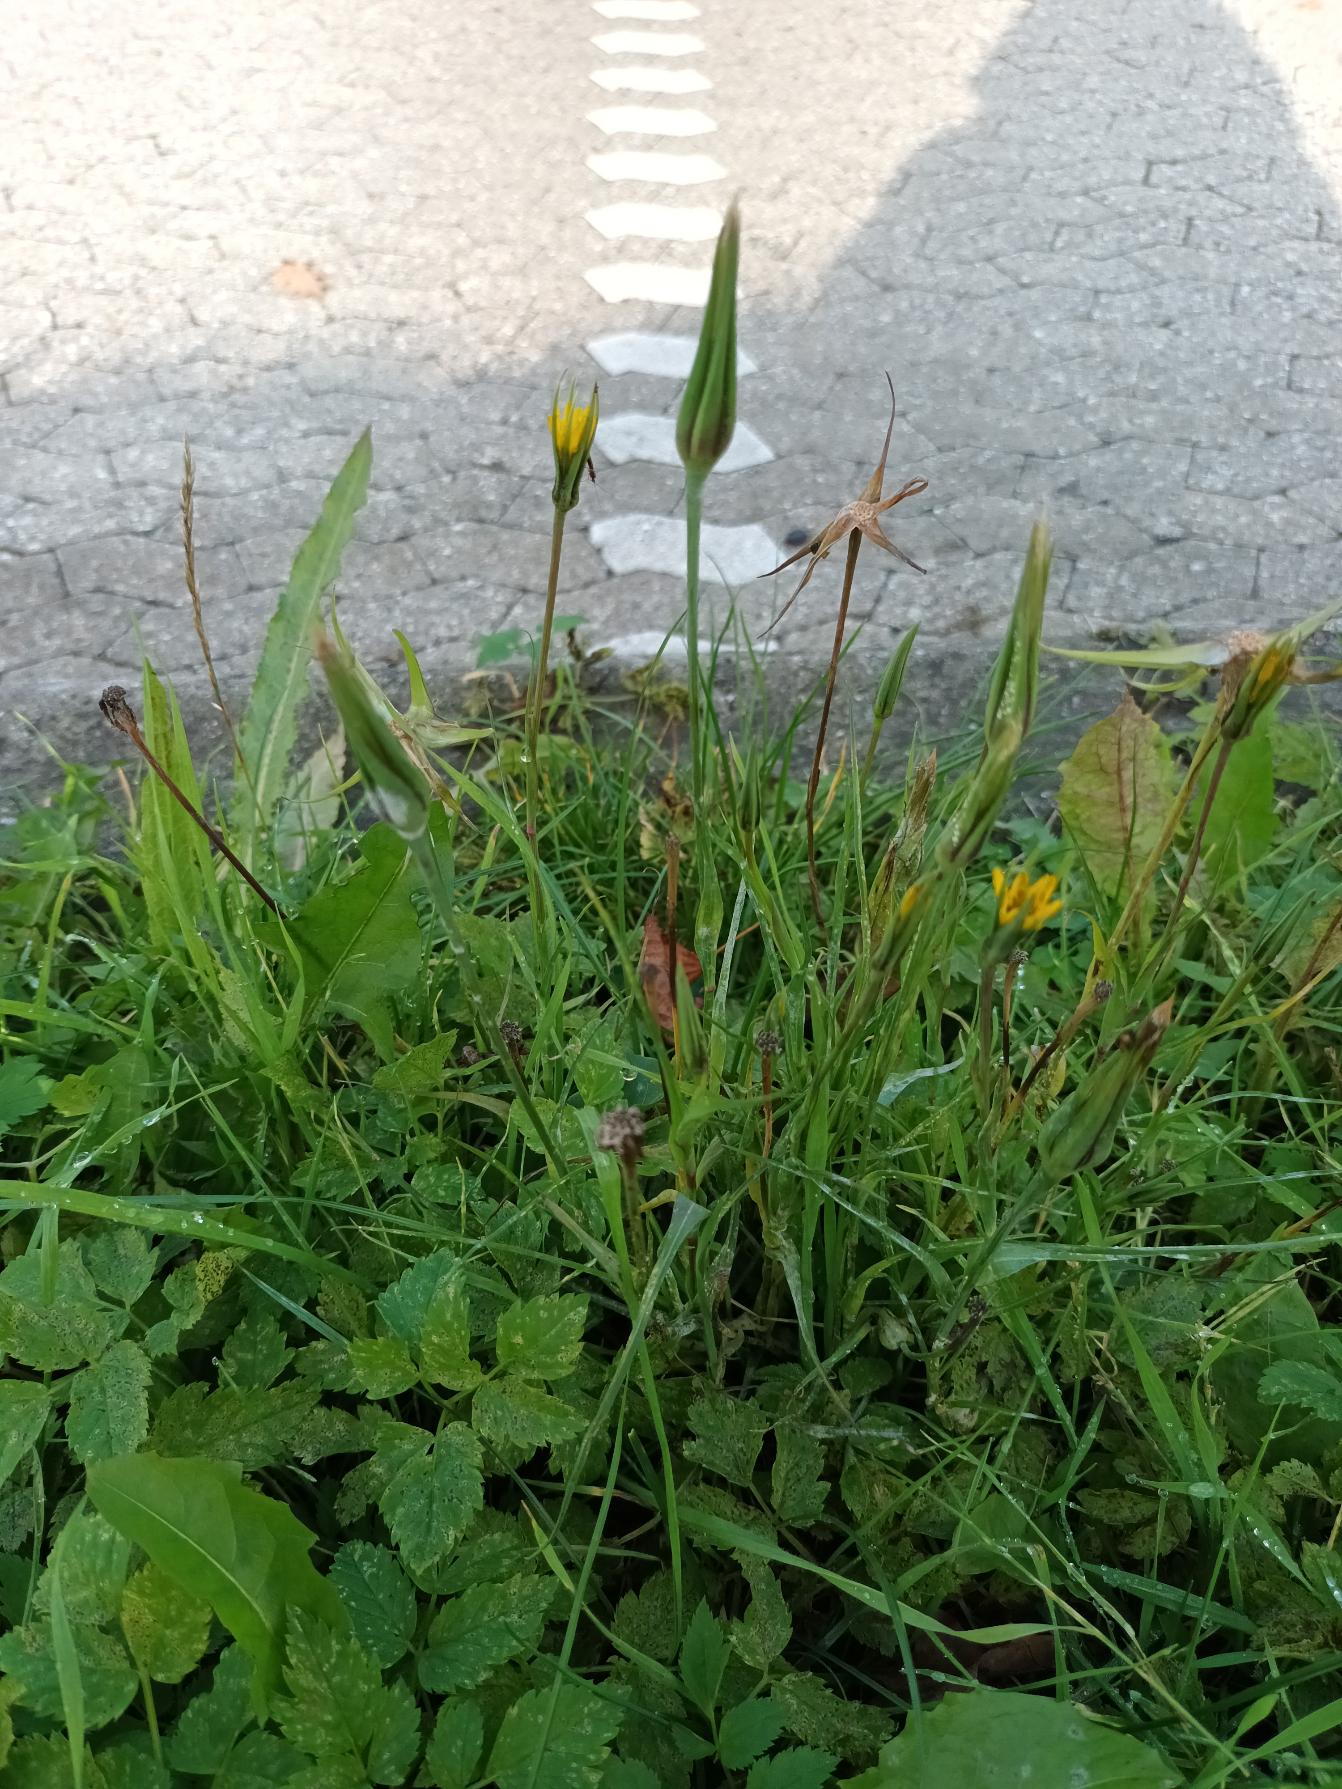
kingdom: Plantae
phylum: Tracheophyta
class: Magnoliopsida
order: Asterales
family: Asteraceae
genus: Tragopogon
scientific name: Tragopogon minor
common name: Småkronet gedeskæg
